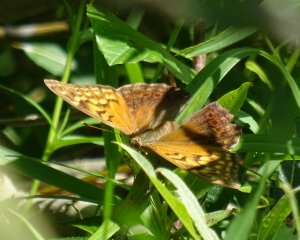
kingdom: Animalia
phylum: Arthropoda
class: Insecta
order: Lepidoptera
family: Nymphalidae
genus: Asterocampa
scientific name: Asterocampa clyton
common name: Tawny Emperor
